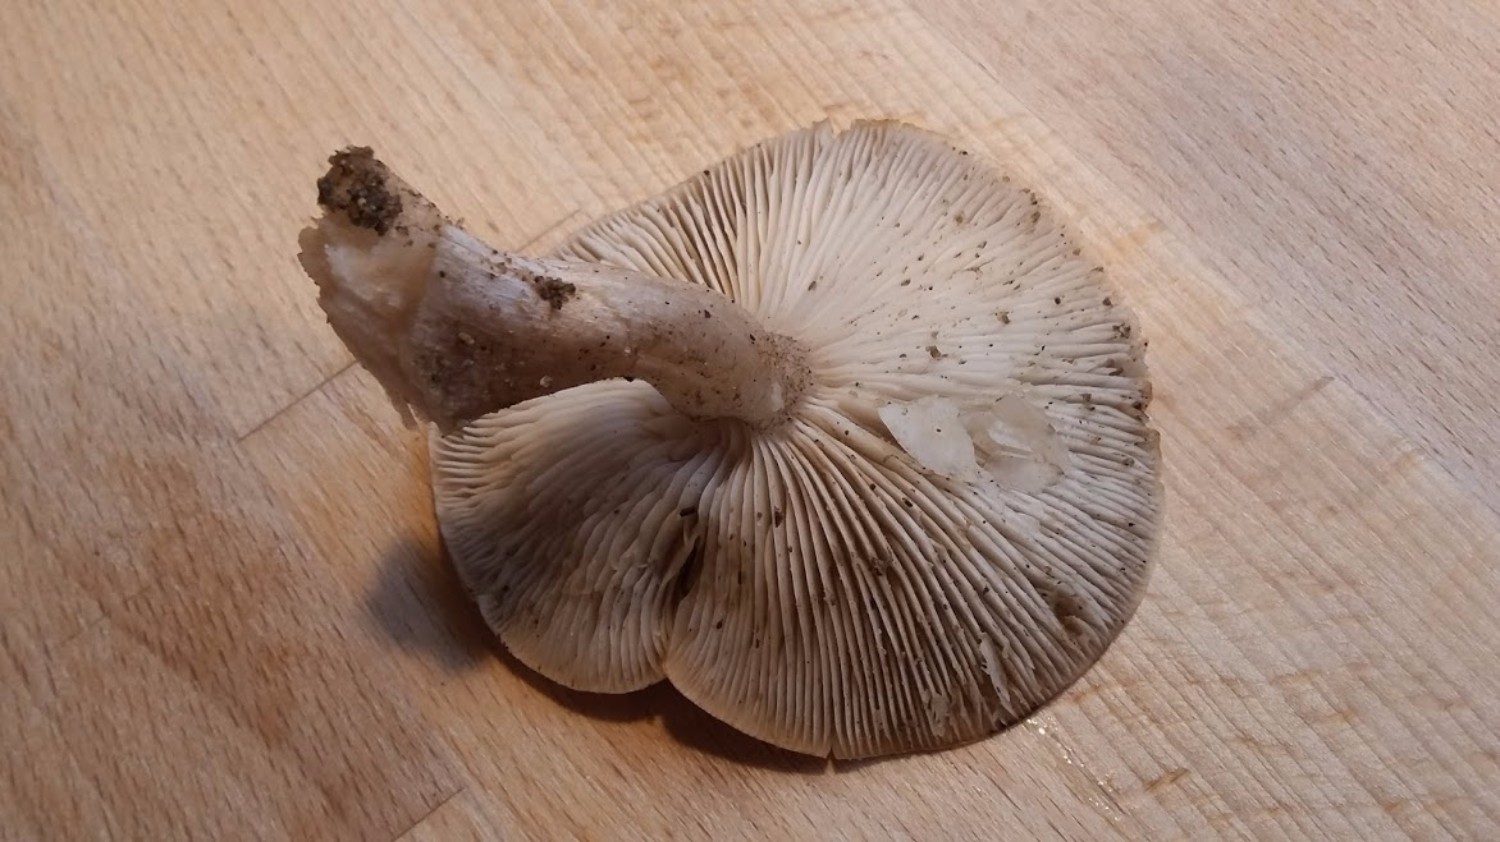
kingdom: Fungi
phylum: Basidiomycota
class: Agaricomycetes
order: Agaricales
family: Tricholomataceae
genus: Tricholoma
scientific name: Tricholoma scalpturatum
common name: gulplettet ridderhat
